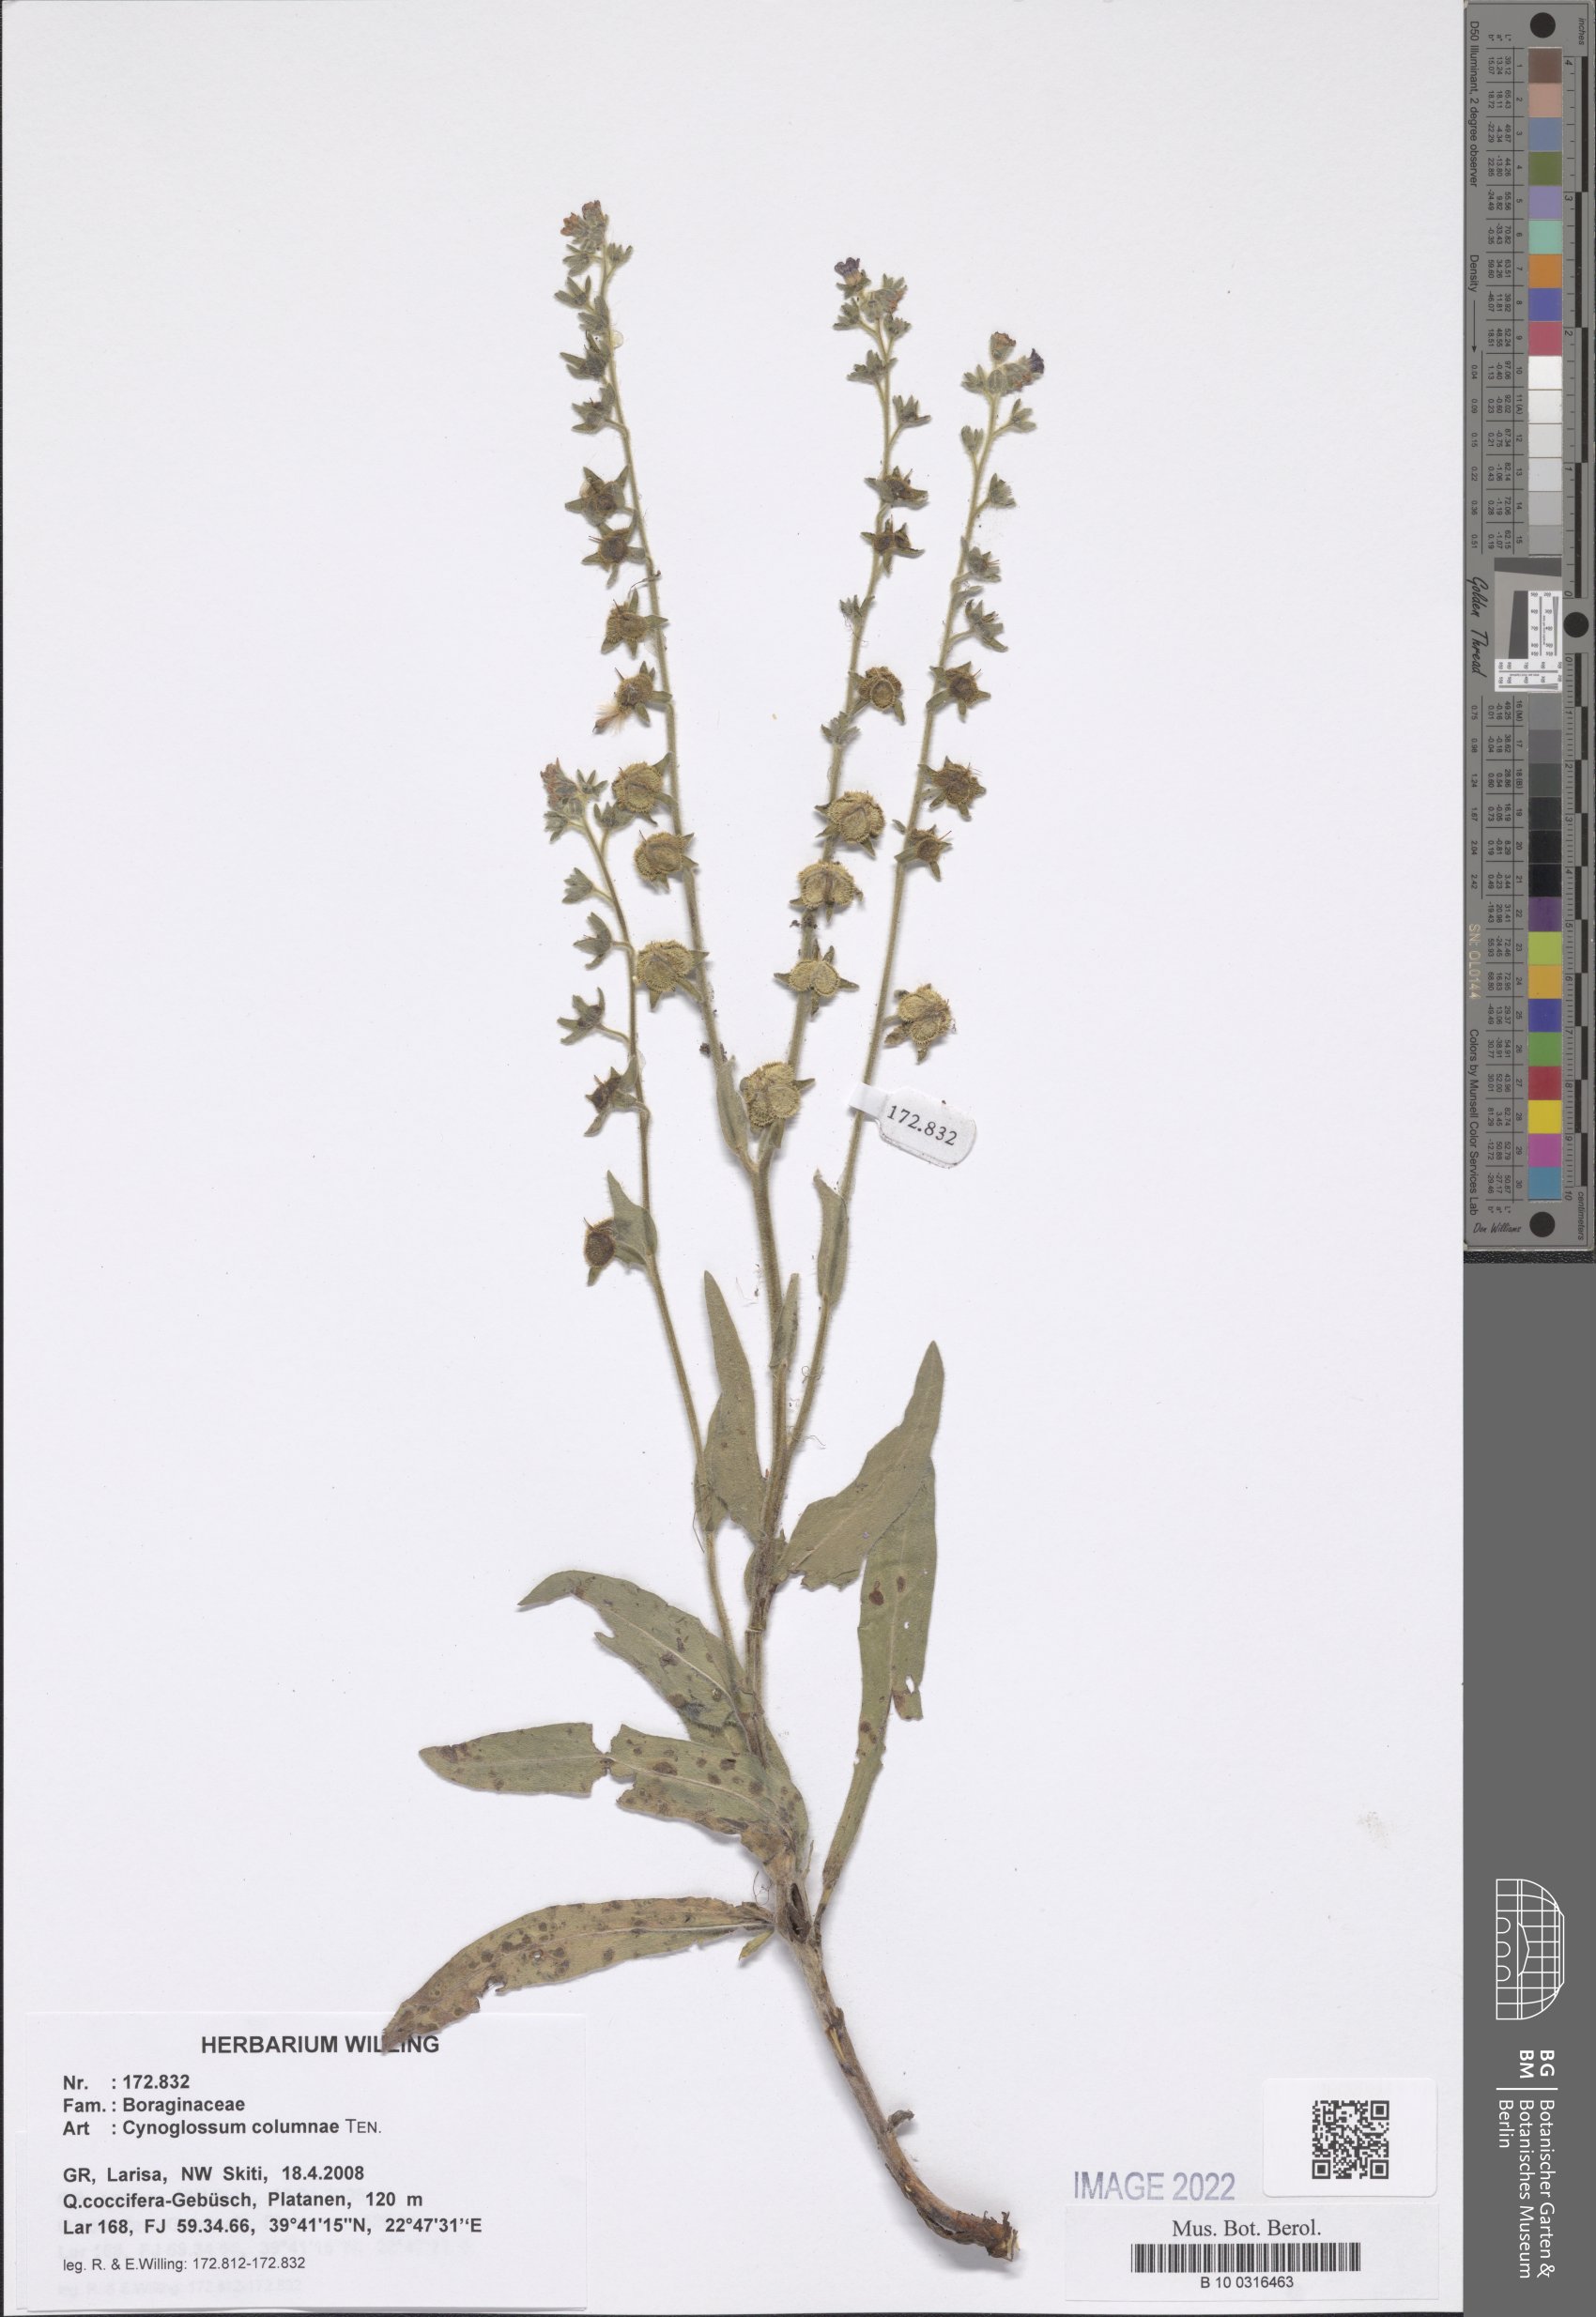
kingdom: Plantae
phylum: Tracheophyta
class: Magnoliopsida
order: Boraginales
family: Boraginaceae
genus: Rindera
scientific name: Rindera columnae
